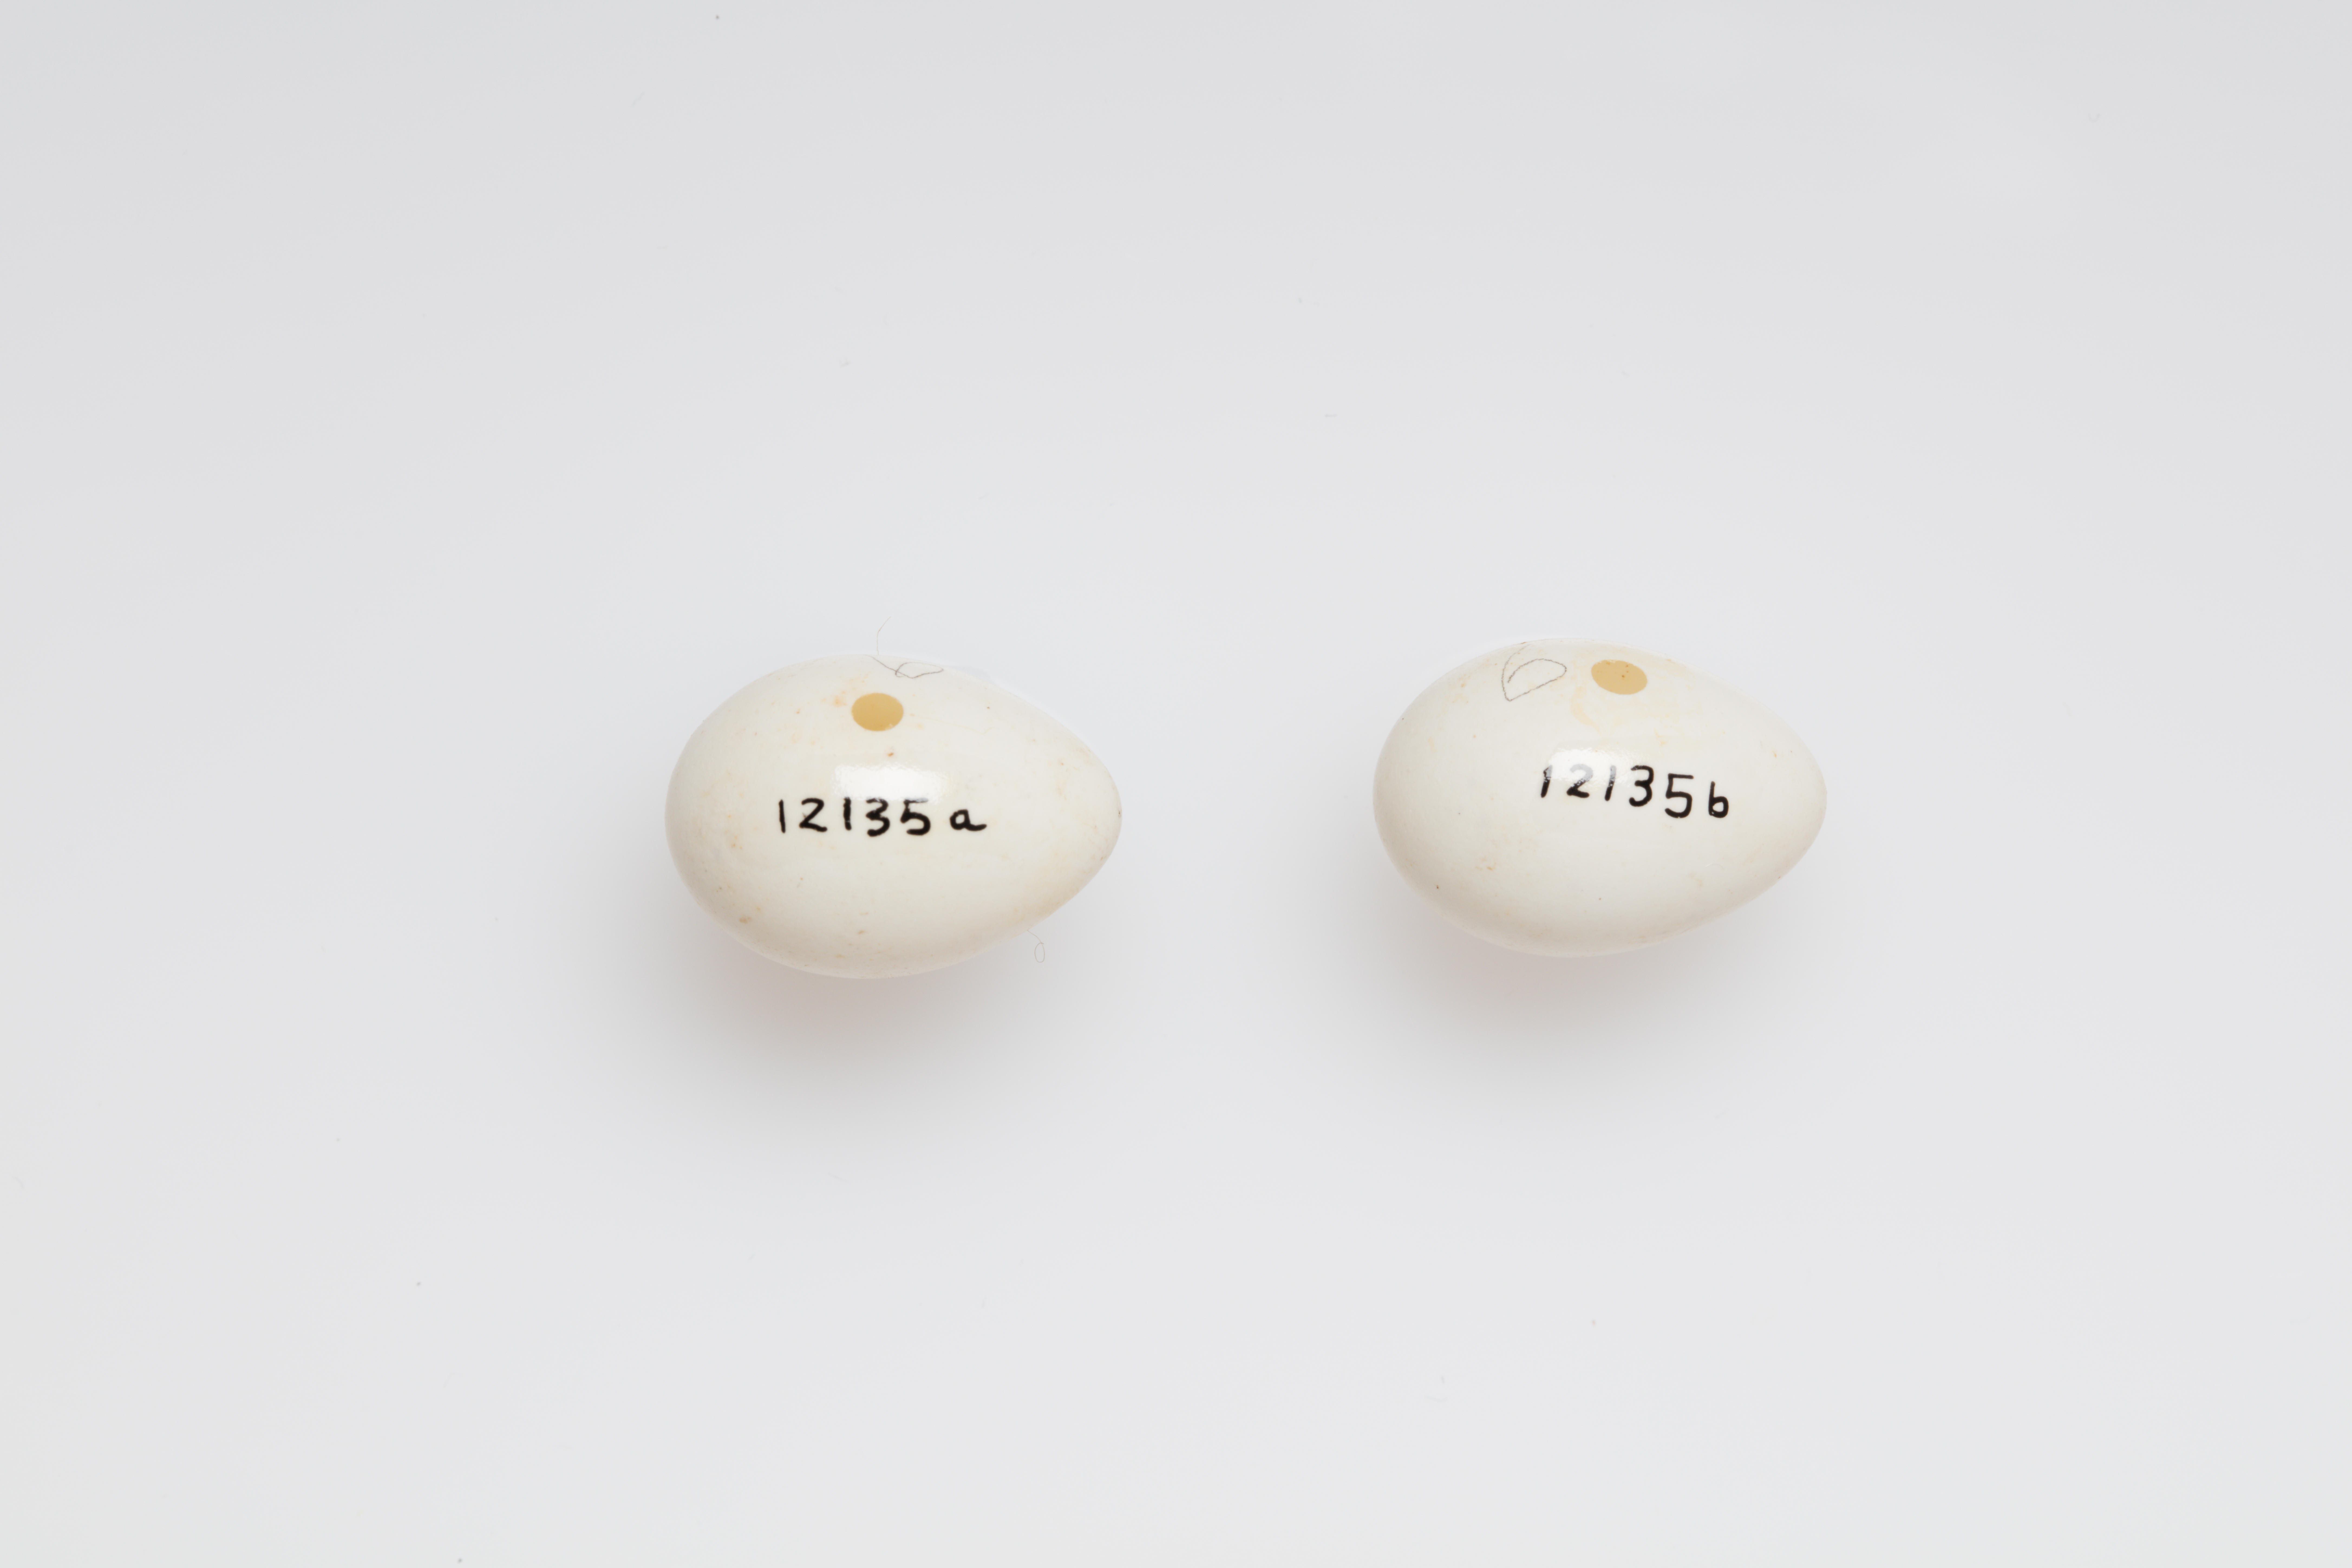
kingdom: Animalia
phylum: Chordata
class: Aves
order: Passeriformes
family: Estrildidae
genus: Poephila
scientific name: Poephila cincta
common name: Black-throated finch
